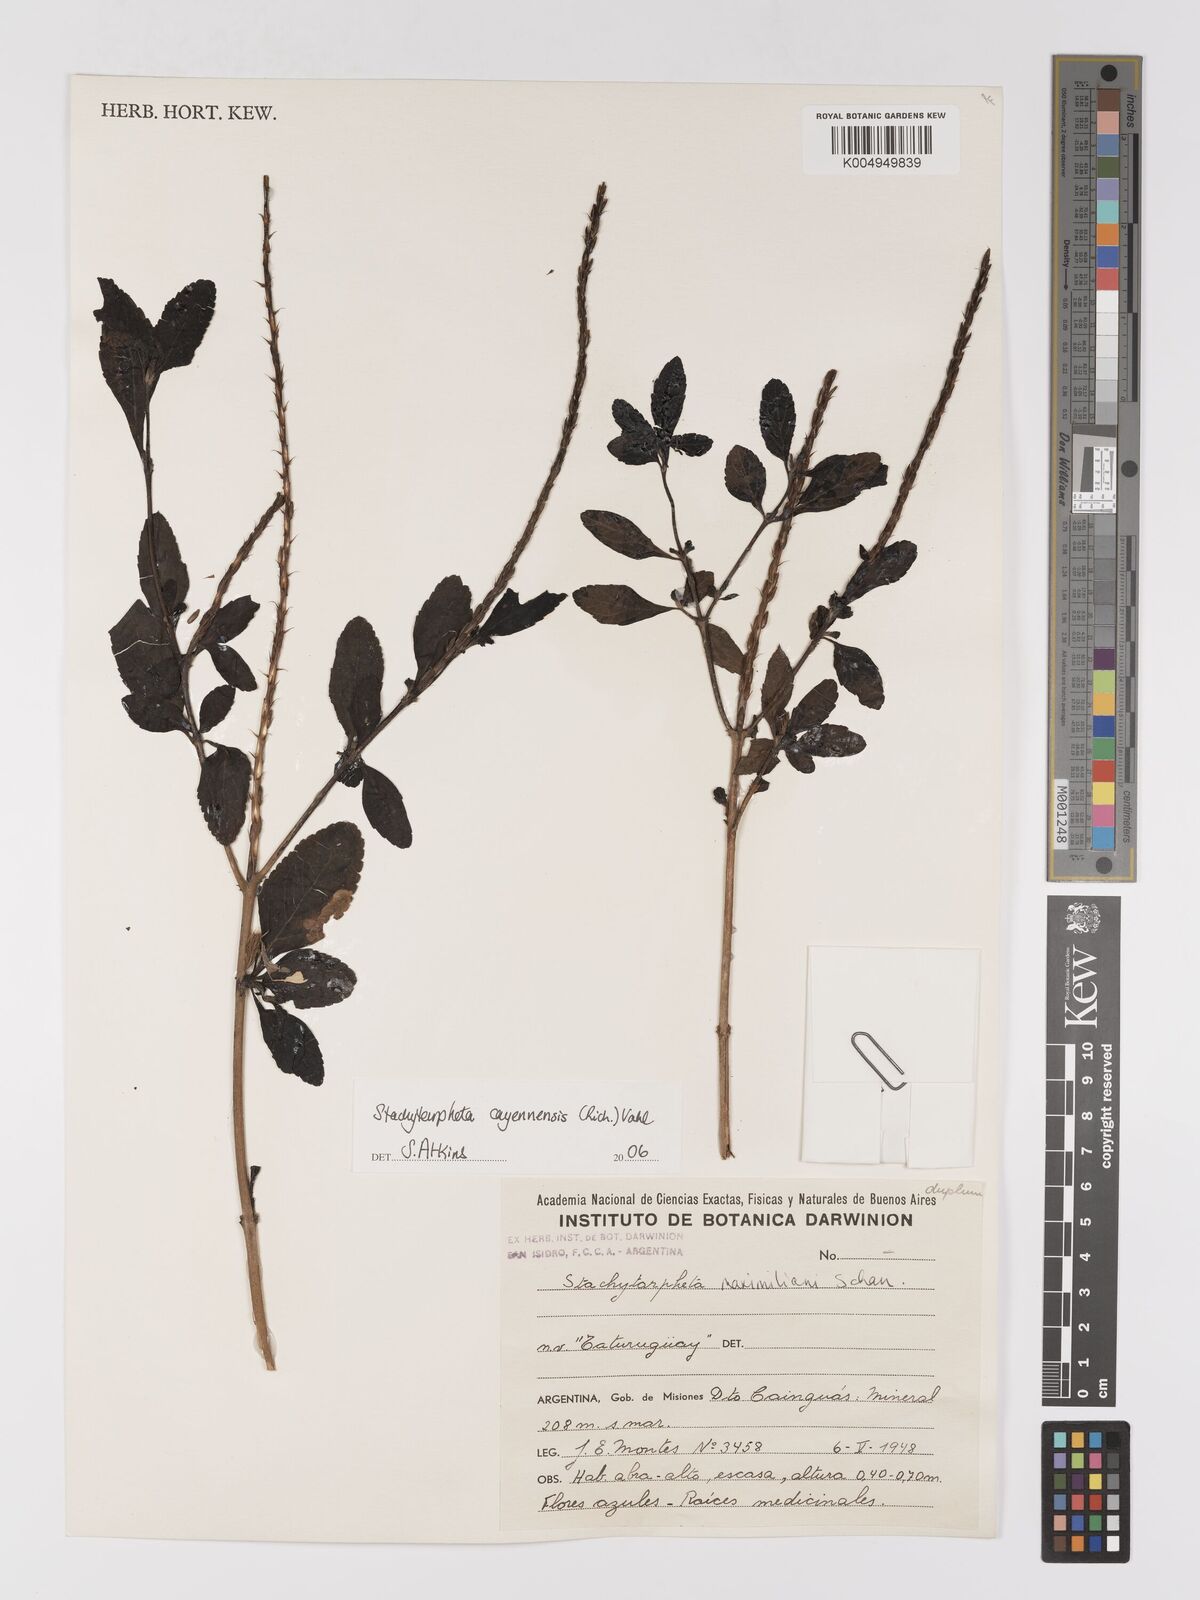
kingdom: Plantae
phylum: Tracheophyta
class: Magnoliopsida
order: Lamiales
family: Verbenaceae
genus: Stachytarpheta
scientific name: Stachytarpheta cayennensis
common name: Cayenne porterweed
